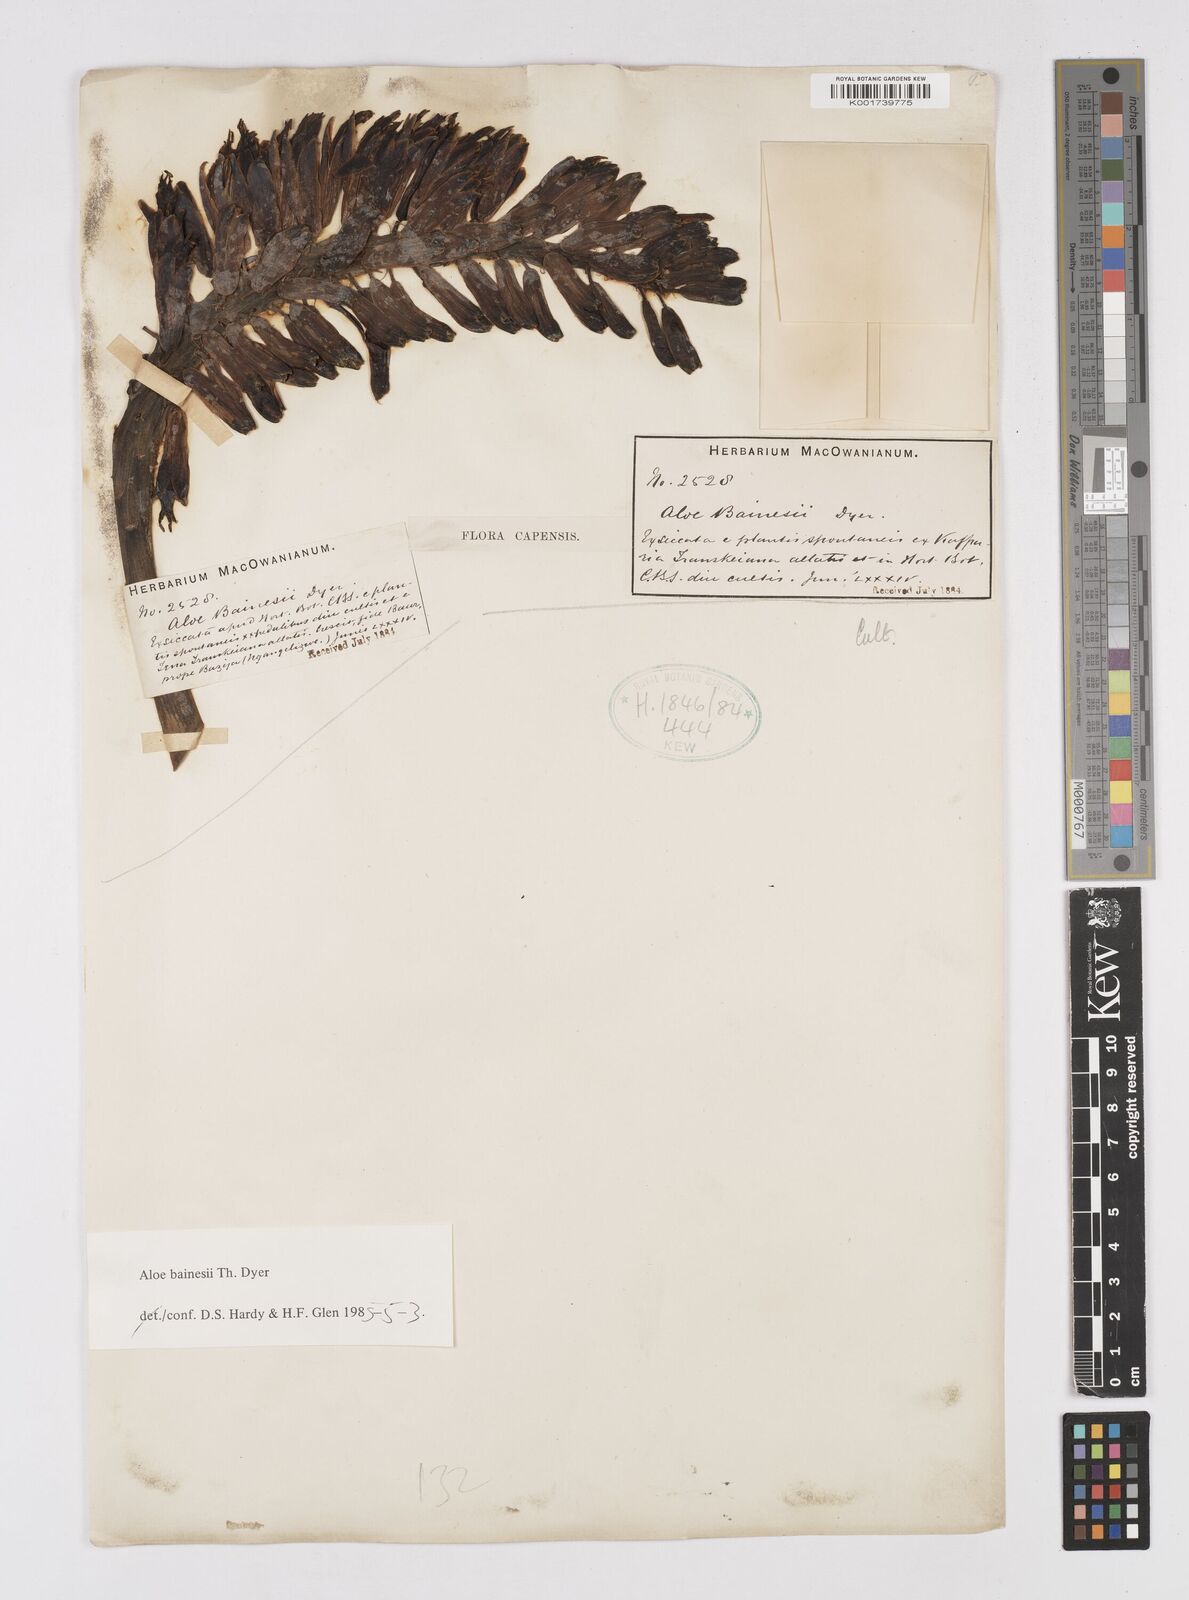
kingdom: Plantae
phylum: Tracheophyta
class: Liliopsida
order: Asparagales
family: Asphodelaceae
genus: Aloidendron
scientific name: Aloidendron barberae
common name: Tree aloe
